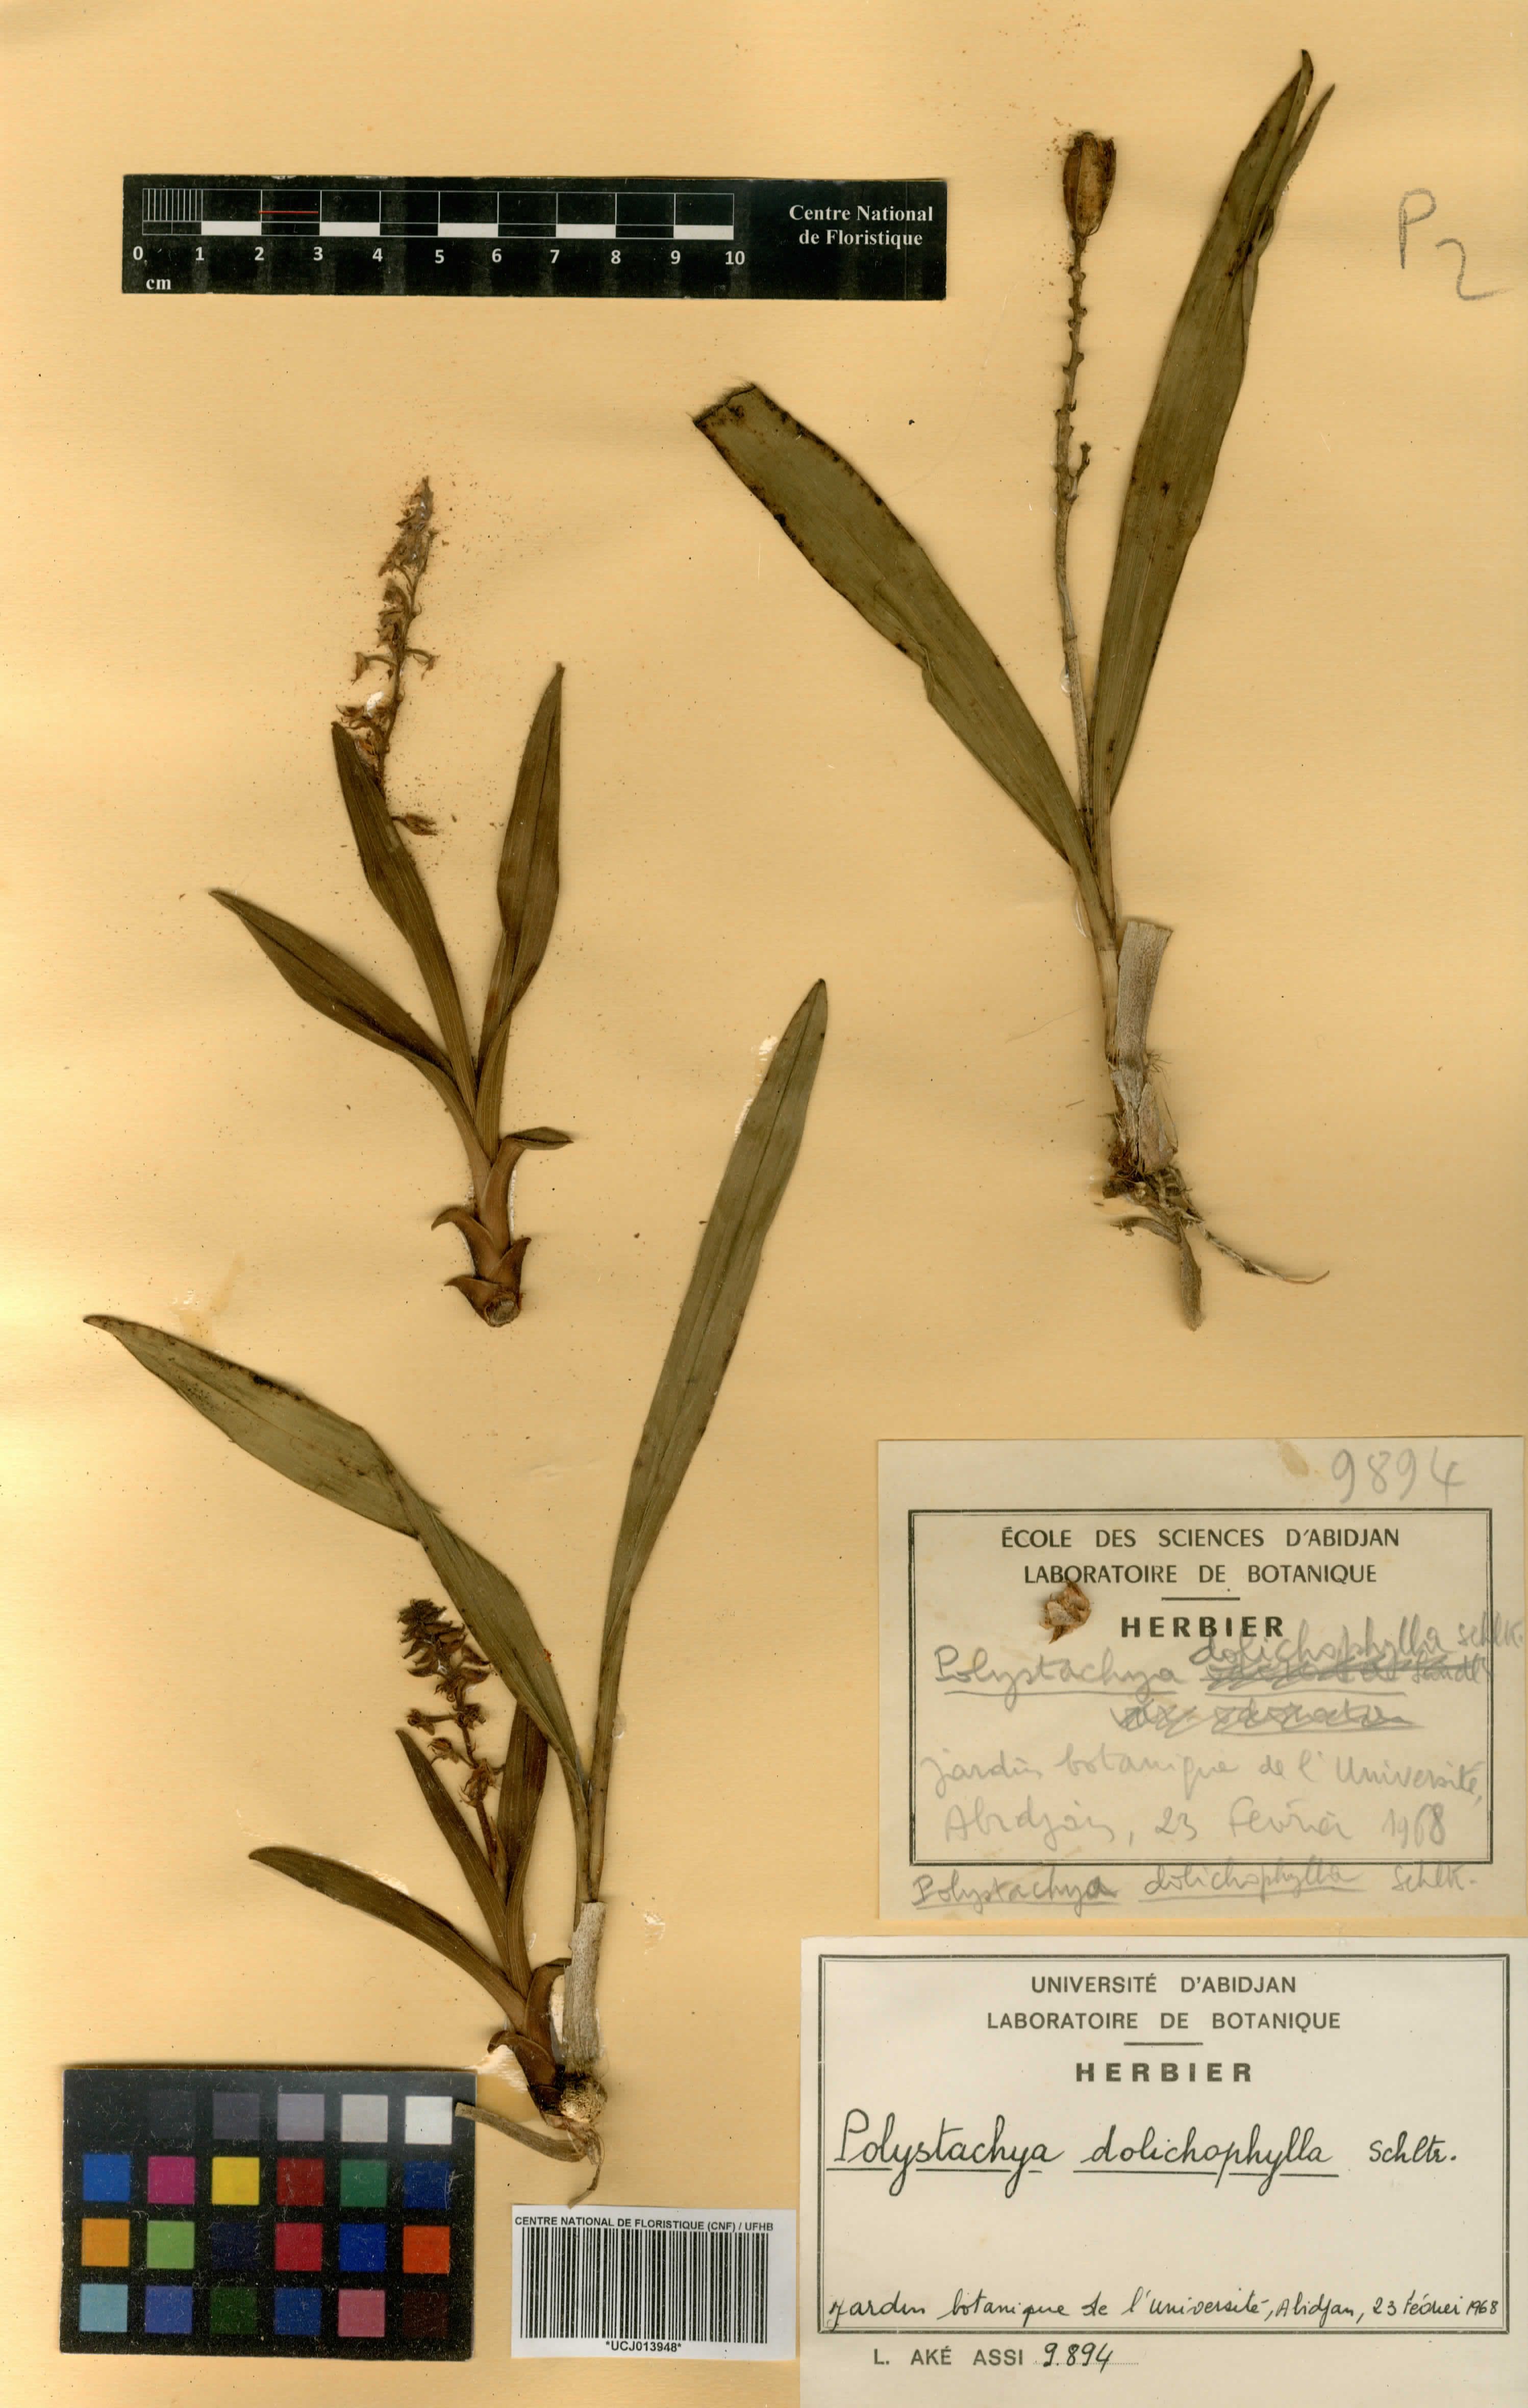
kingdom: Plantae
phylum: Tracheophyta
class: Liliopsida
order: Asparagales
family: Orchidaceae
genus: Polystachya
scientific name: Polystachya dolichophylla
